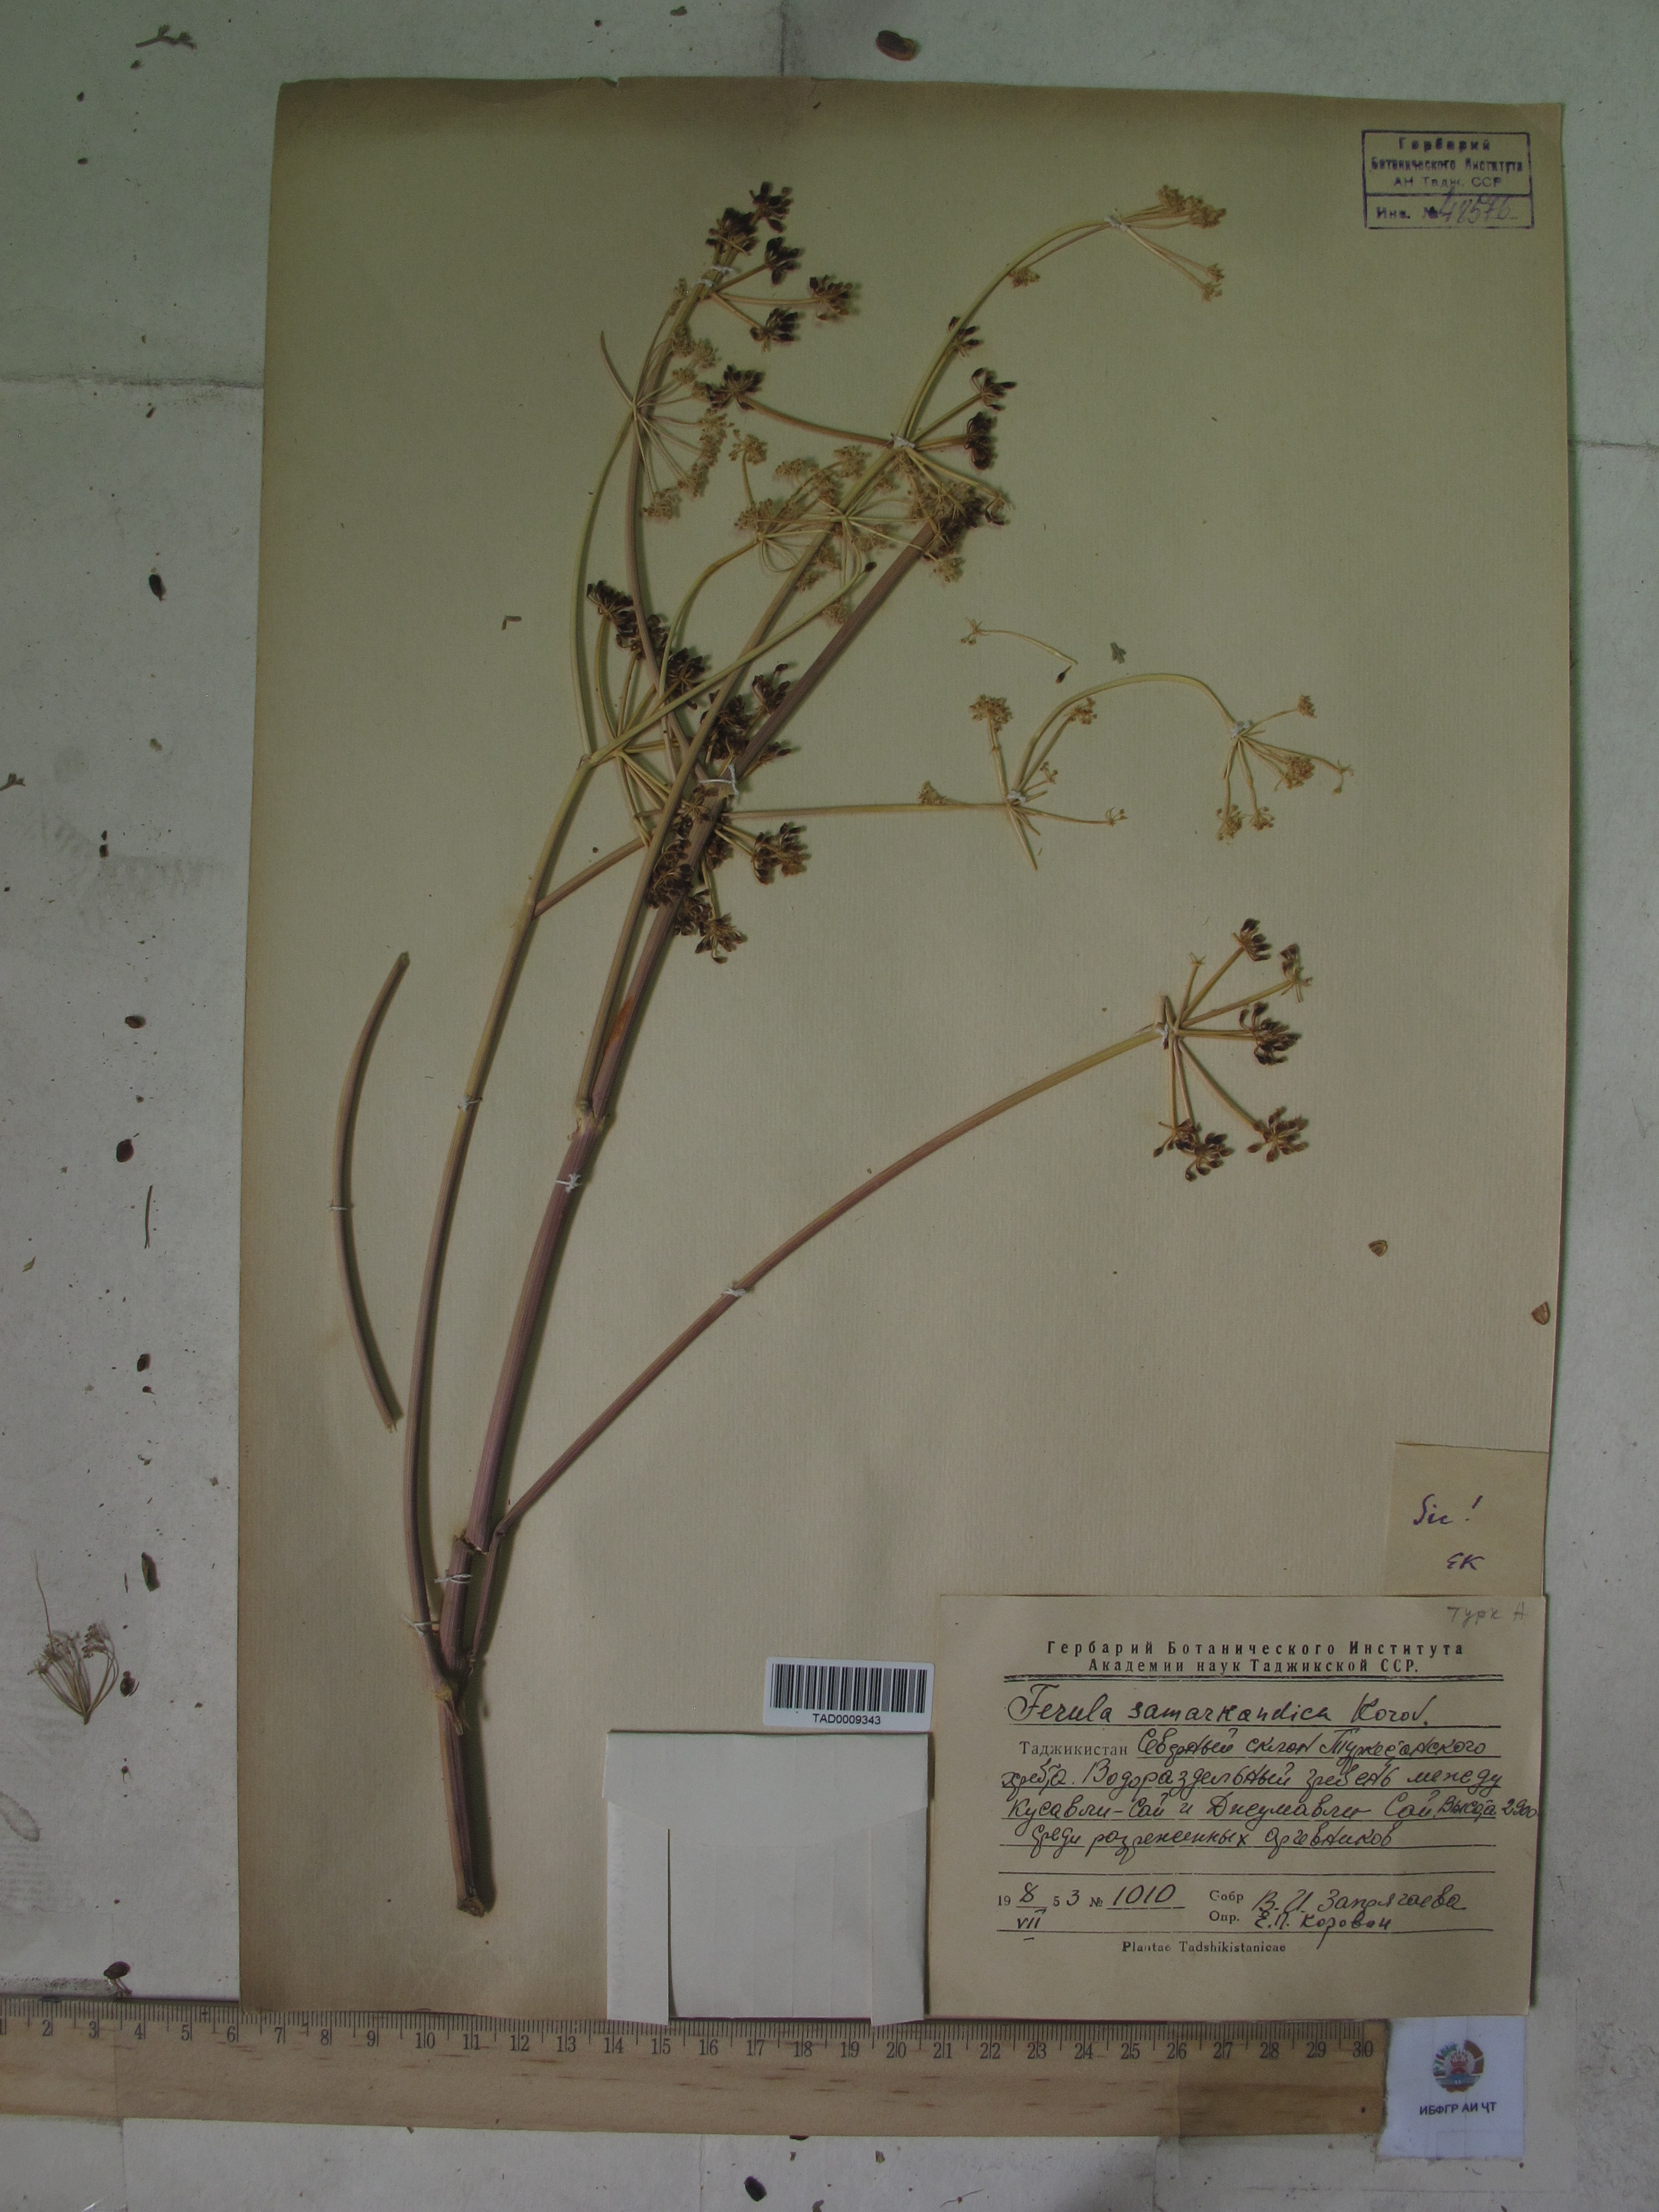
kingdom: Plantae
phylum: Tracheophyta
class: Magnoliopsida
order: Apiales
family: Apiaceae
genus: Ferula
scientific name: Ferula samarkandica
